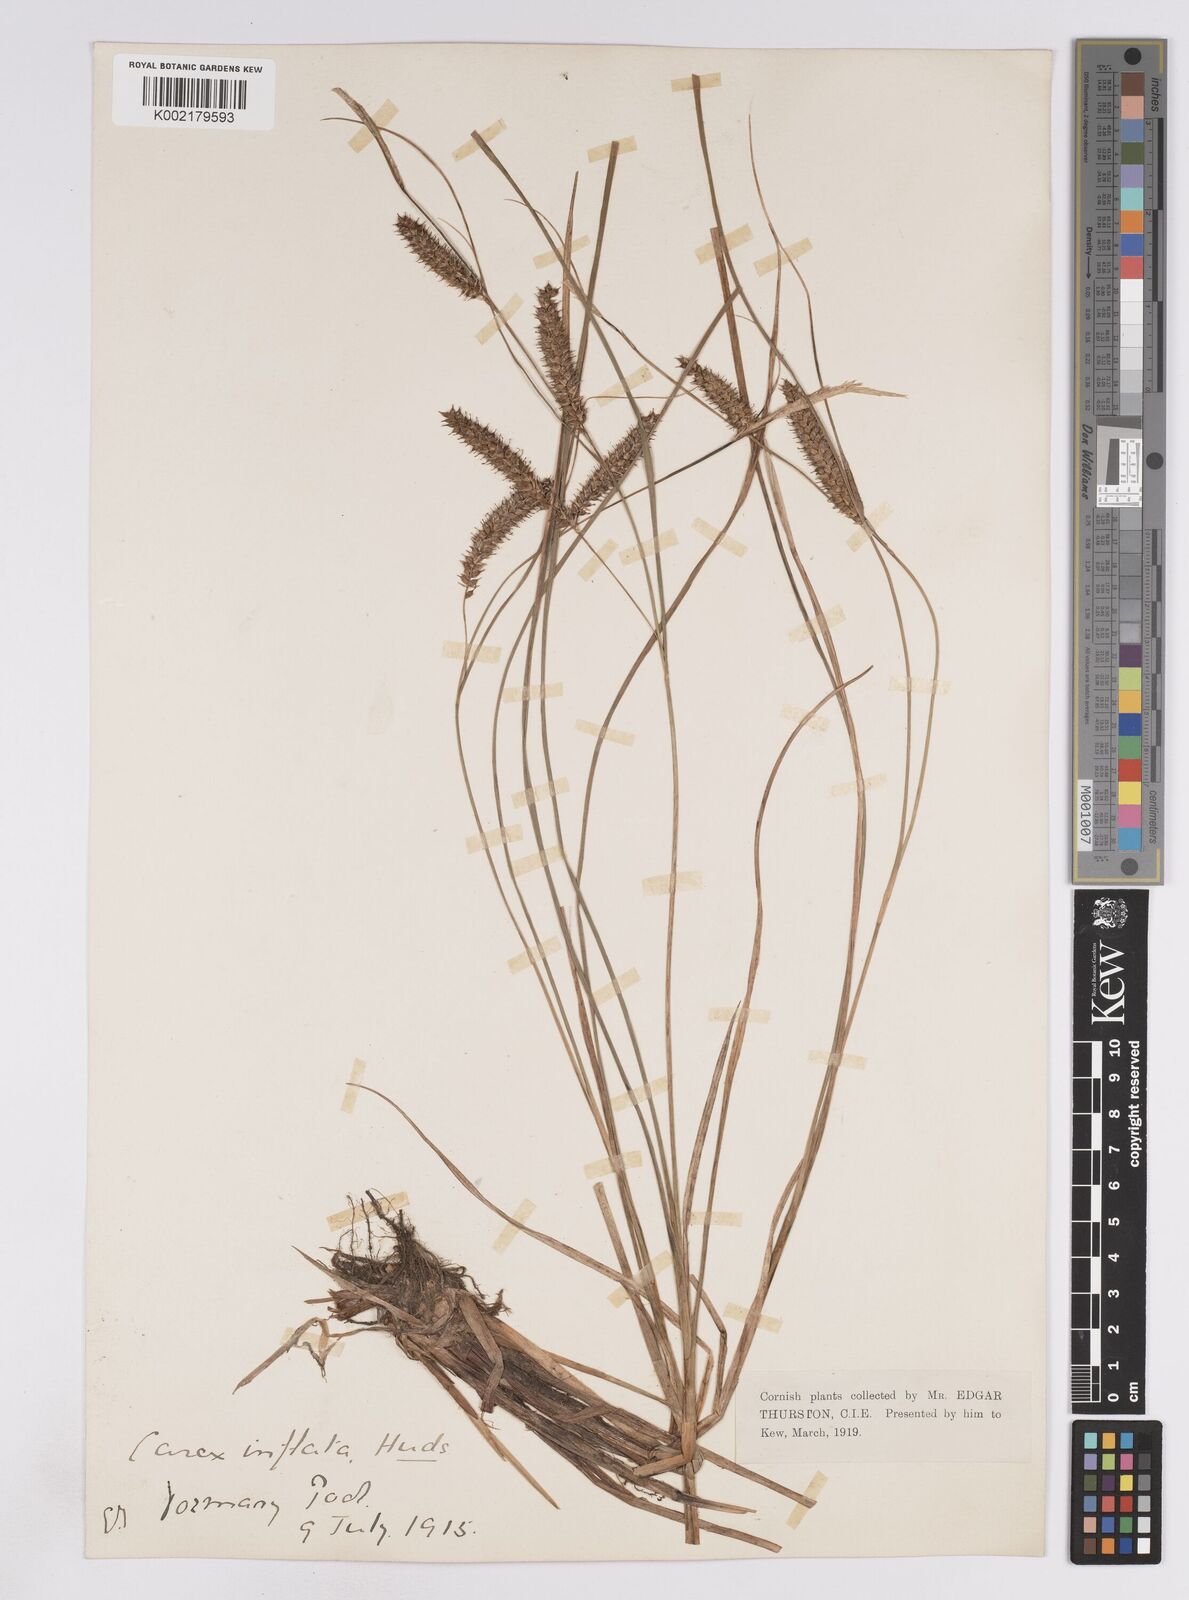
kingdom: Plantae
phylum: Tracheophyta
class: Liliopsida
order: Poales
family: Cyperaceae
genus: Carex
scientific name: Carex rostrata
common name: Bottle sedge
